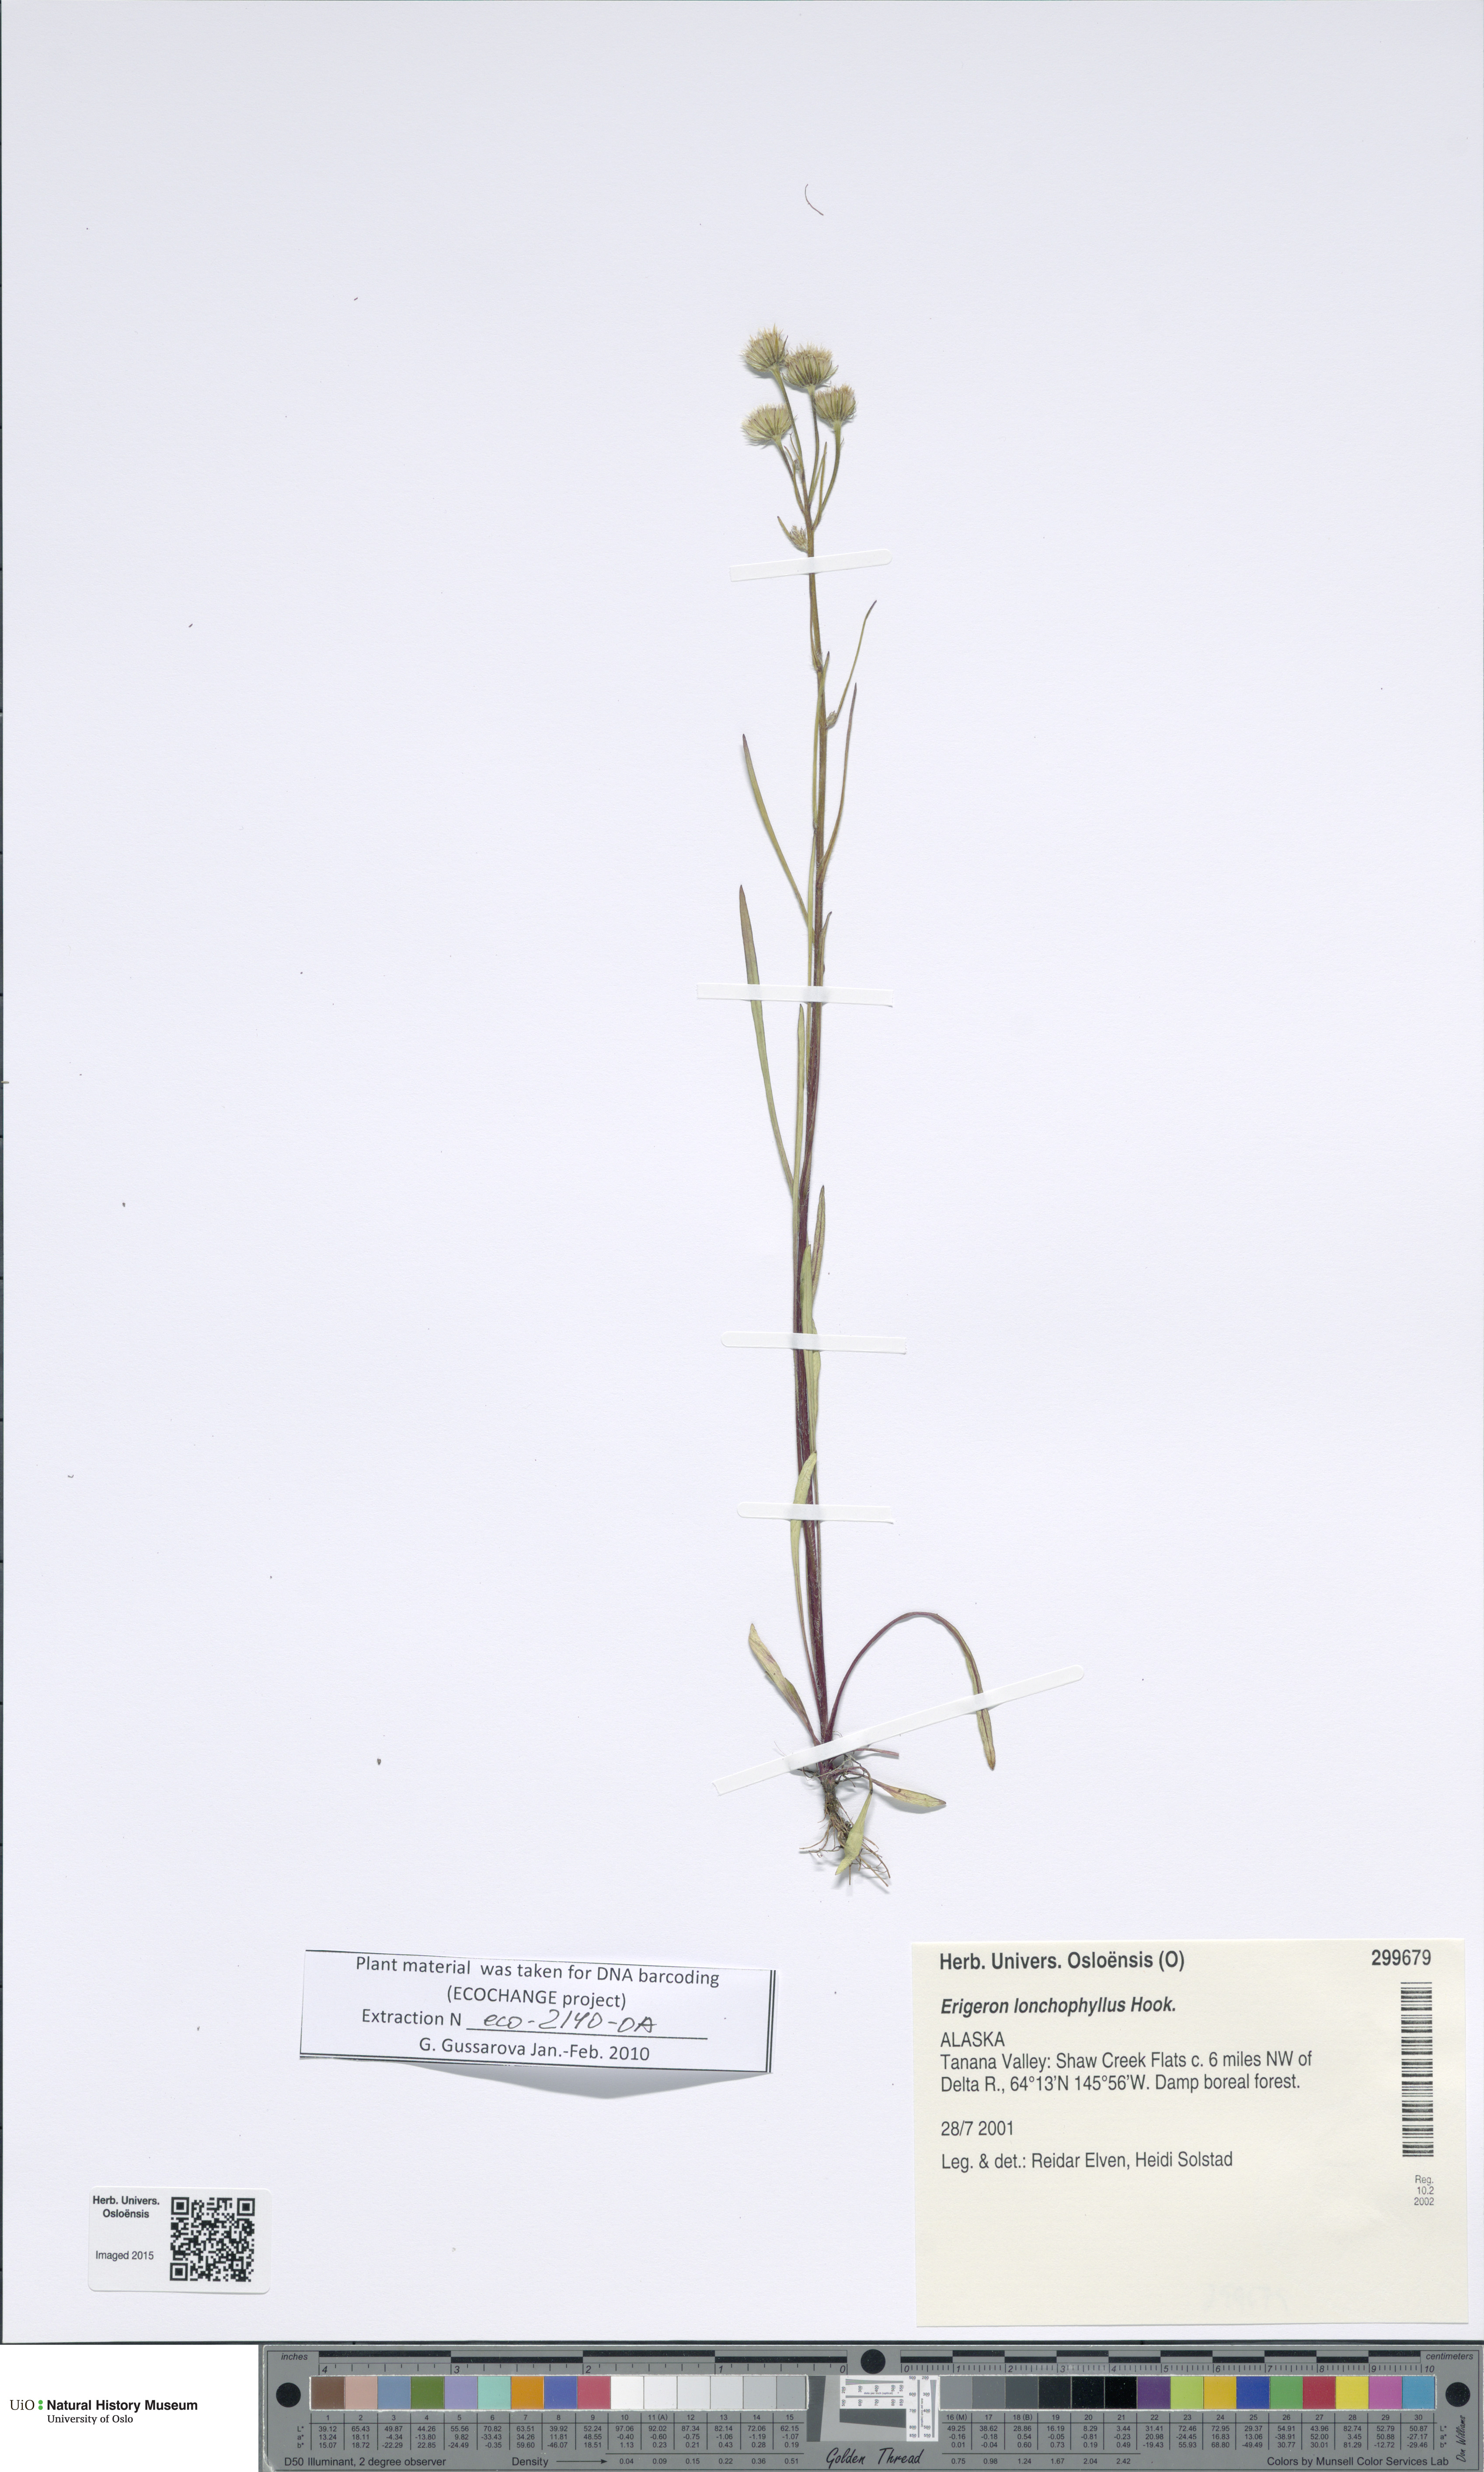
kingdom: Plantae
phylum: Tracheophyta
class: Magnoliopsida
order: Asterales
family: Asteraceae
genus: Erigeron
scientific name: Erigeron lonchophyllus
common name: Short-ray fleabane
